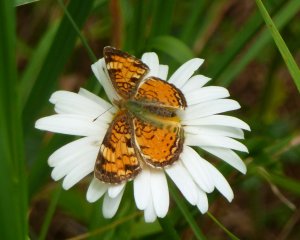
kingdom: Animalia
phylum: Arthropoda
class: Insecta
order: Lepidoptera
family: Nymphalidae
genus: Phyciodes
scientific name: Phyciodes tharos
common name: Northern Crescent
